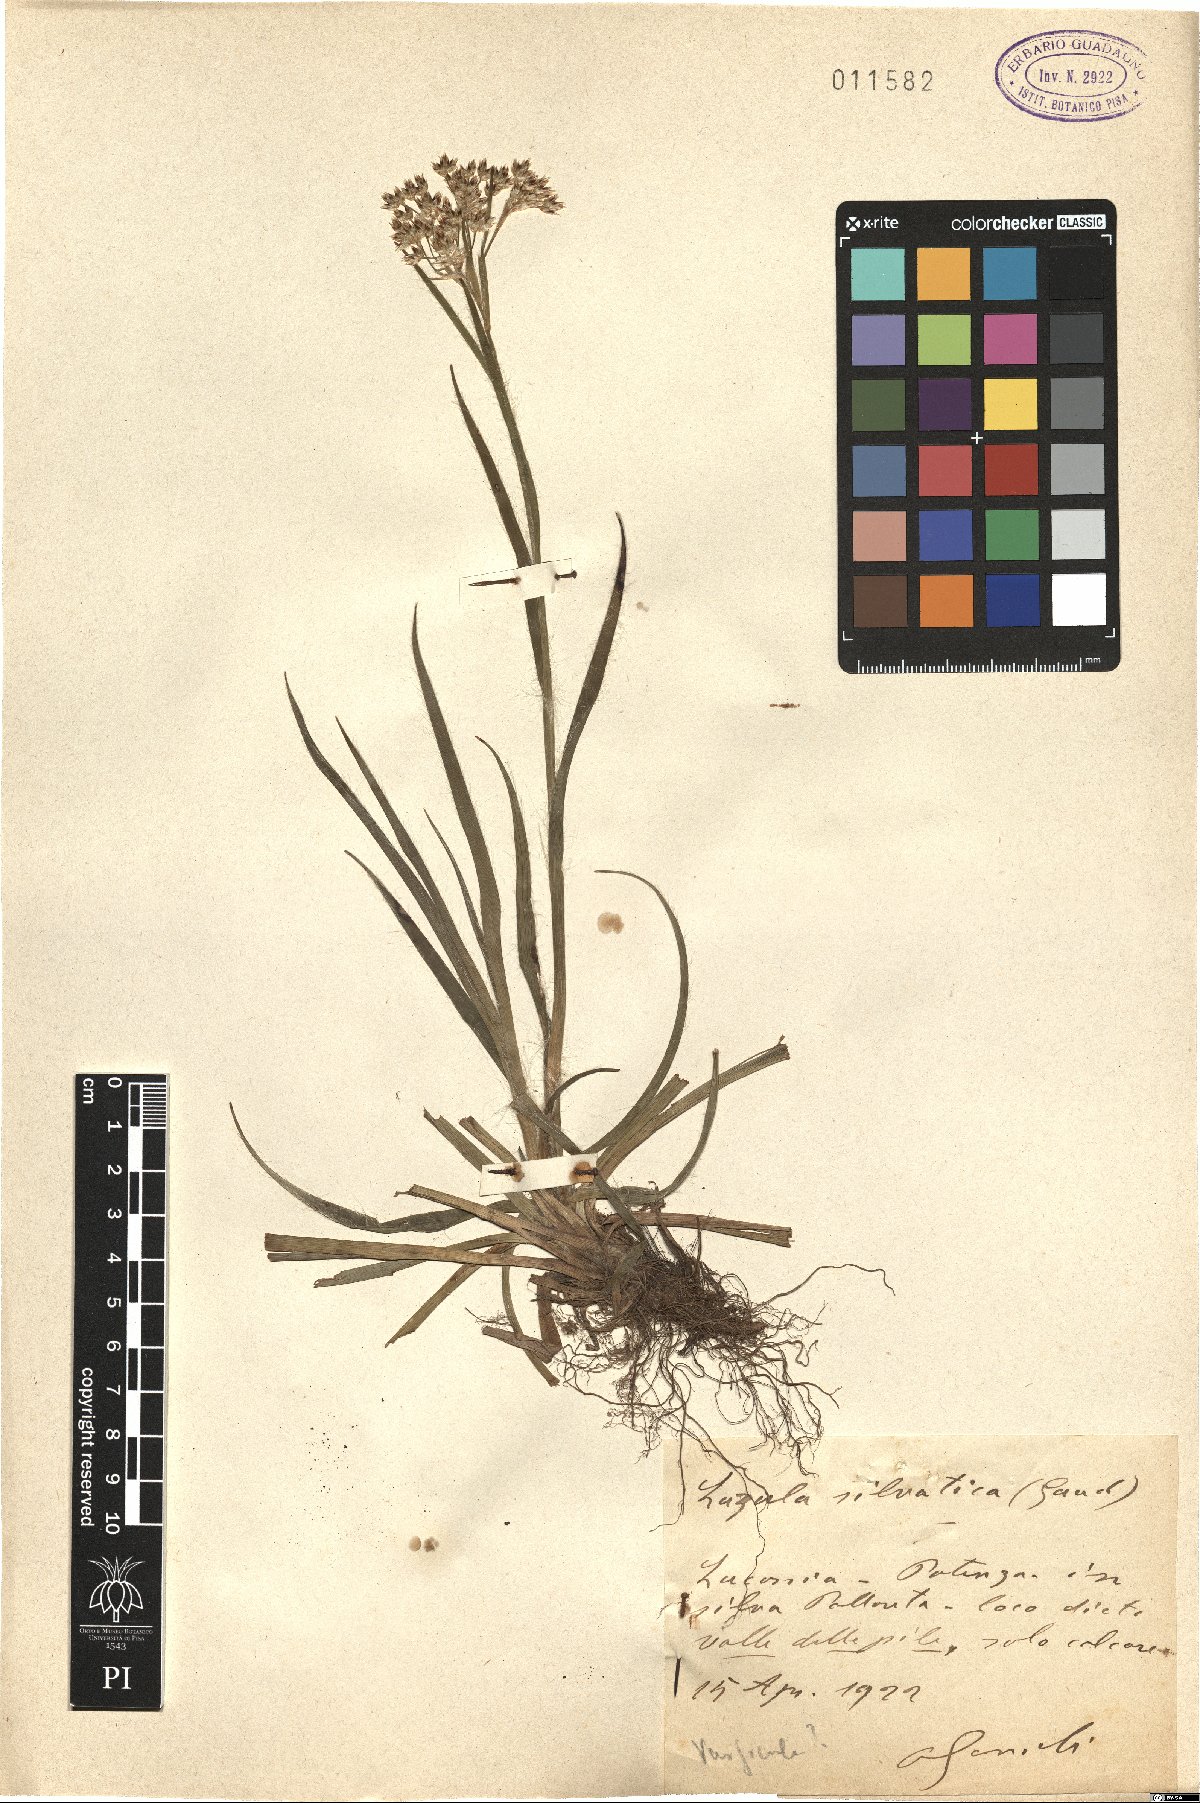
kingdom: Plantae
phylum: Tracheophyta
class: Liliopsida
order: Poales
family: Juncaceae
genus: Luzula
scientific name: Luzula sylvatica
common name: Great wood-rush
